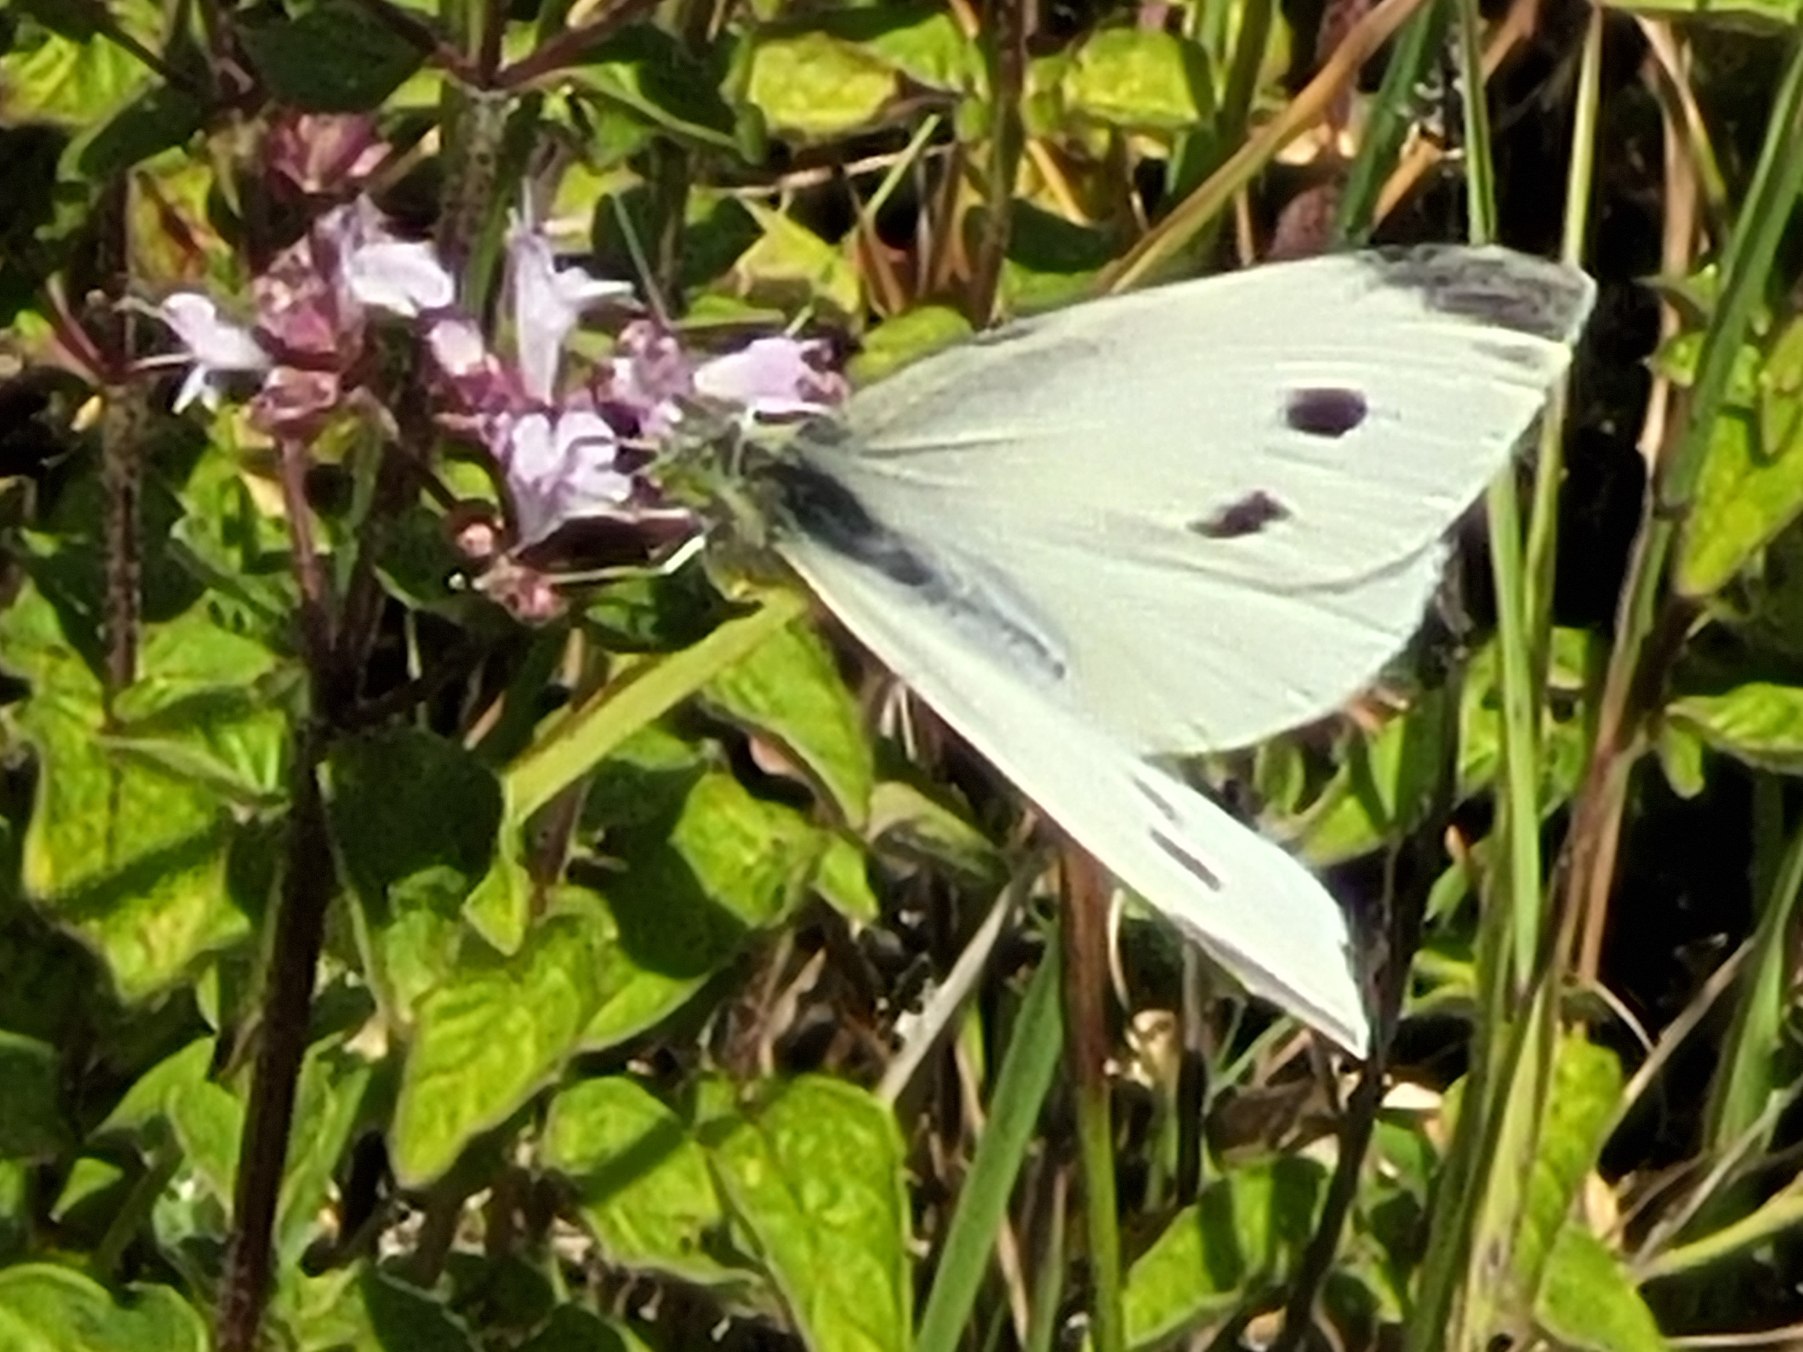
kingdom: Animalia
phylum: Arthropoda
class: Insecta
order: Lepidoptera
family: Pieridae
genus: Pieris
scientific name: Pieris rapae
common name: Lille kålsommerfugl
